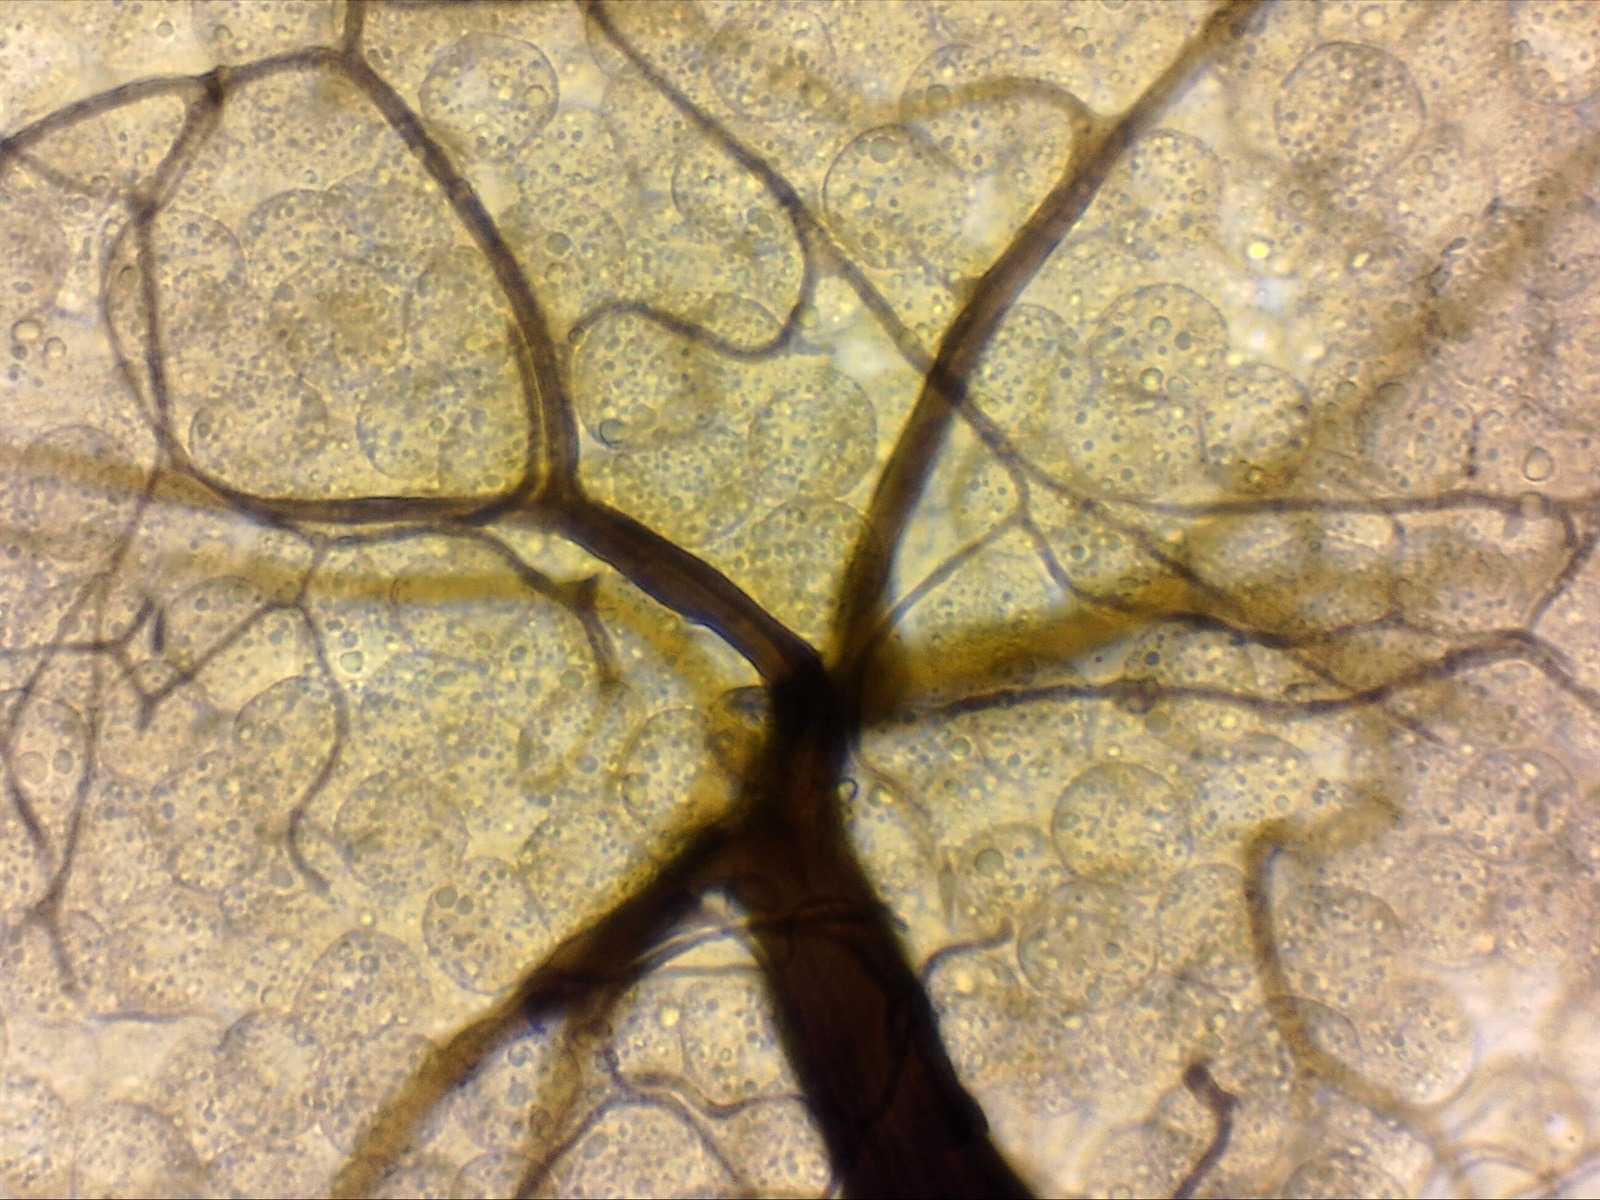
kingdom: Protozoa
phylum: Mycetozoa
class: Myxomycetes
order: Stemonitidales
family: Stemonitidaceae
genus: Paradiacheopsis
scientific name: Paradiacheopsis solitaria
